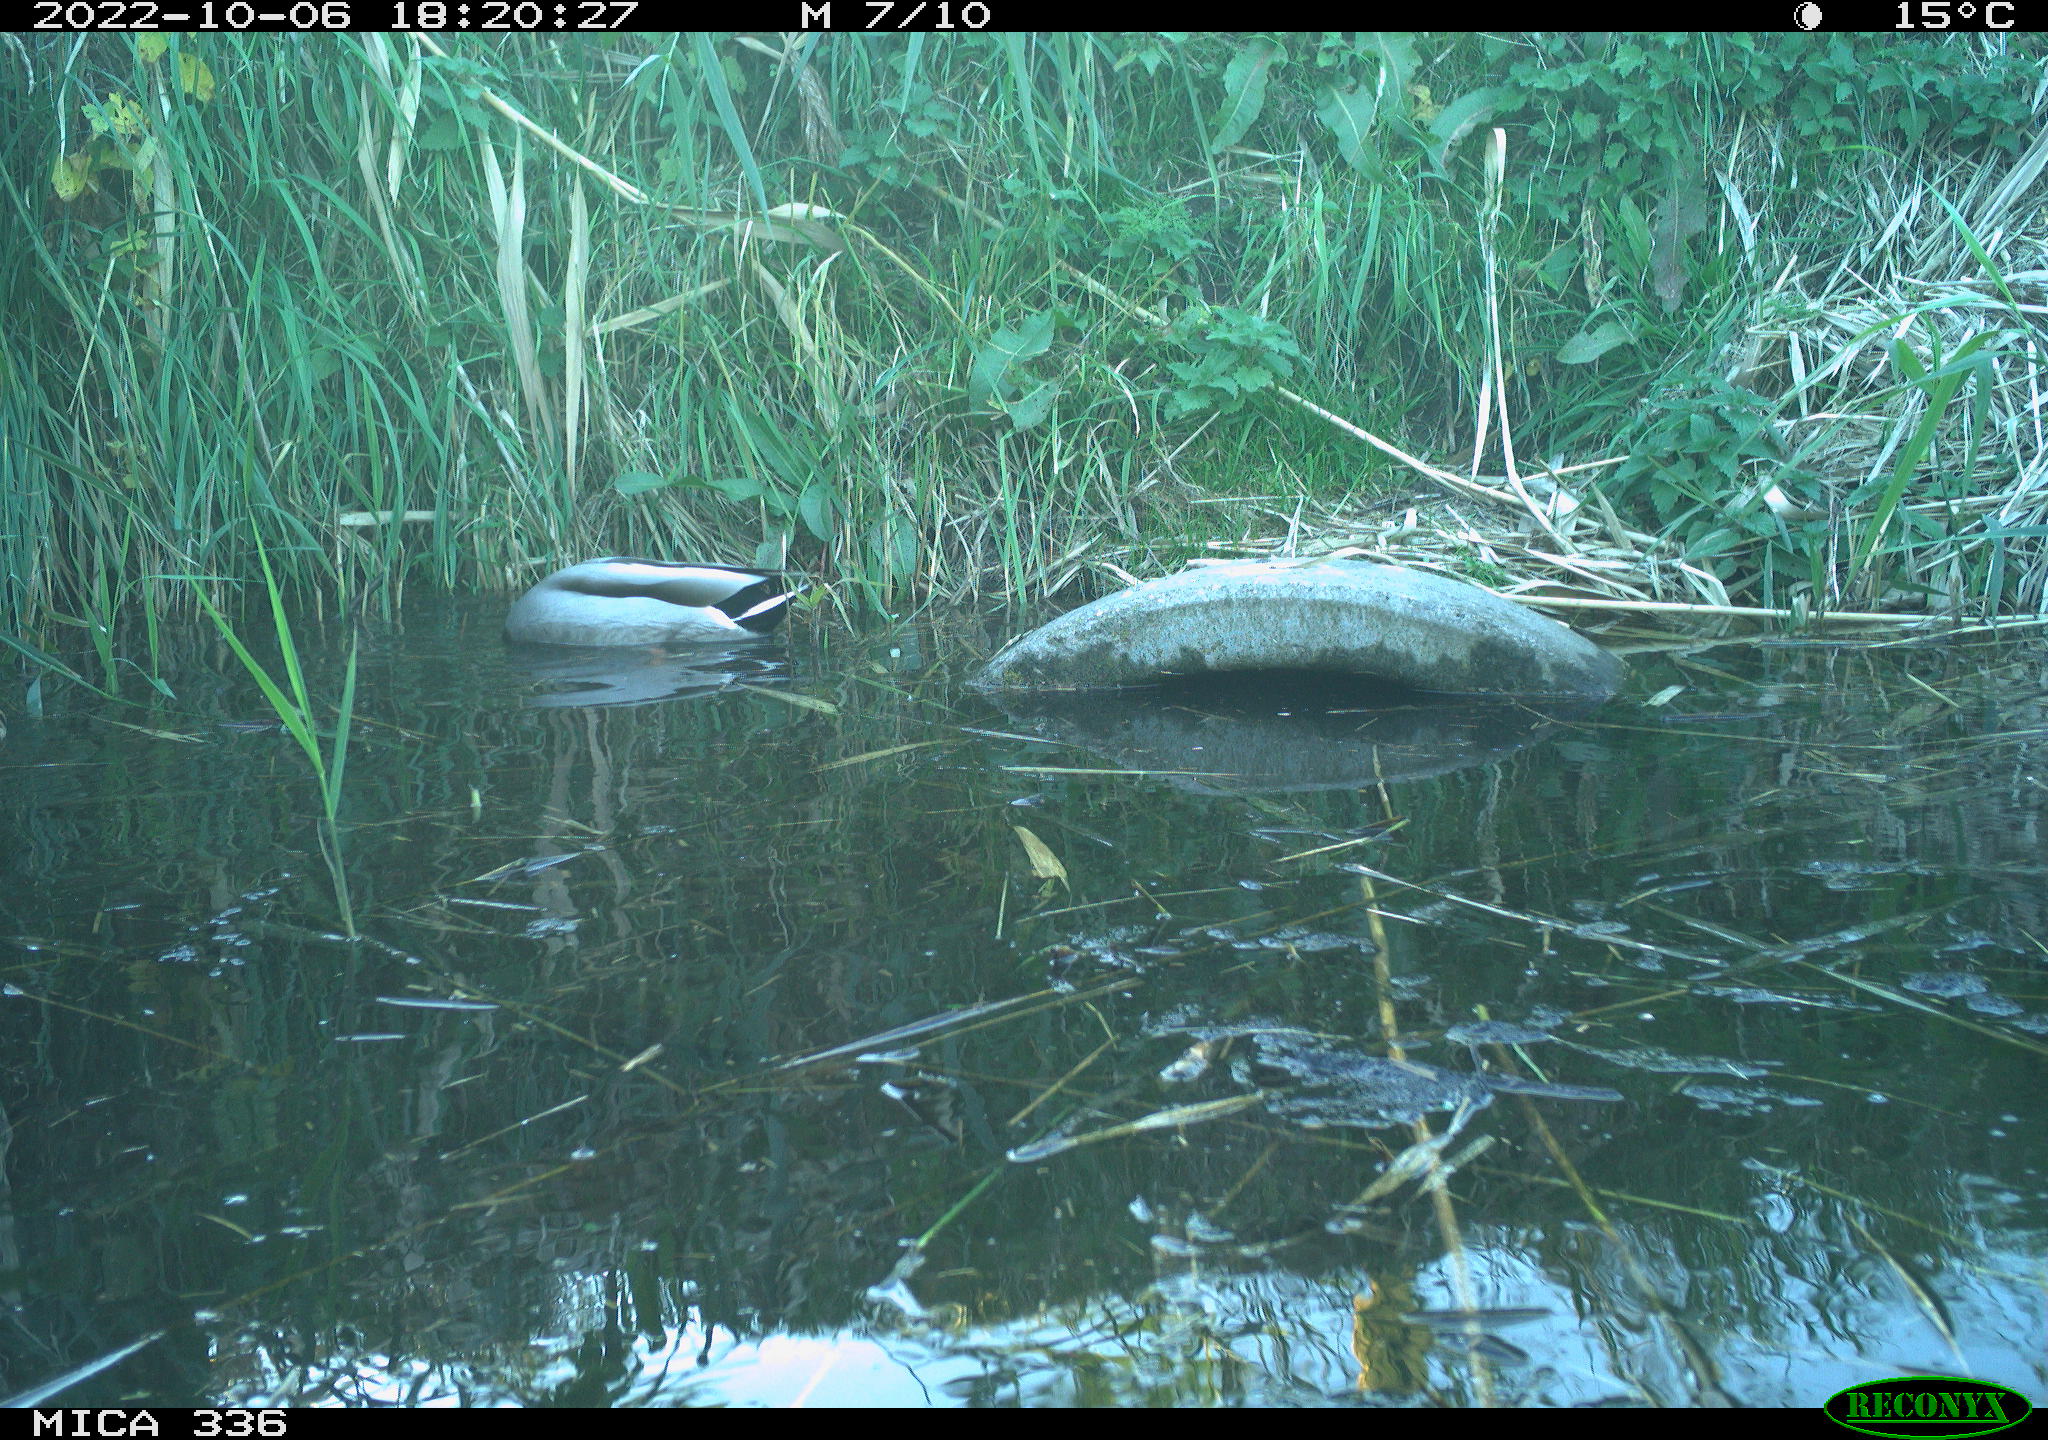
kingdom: Animalia
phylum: Chordata
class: Aves
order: Anseriformes
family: Anatidae
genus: Anas
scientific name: Anas
